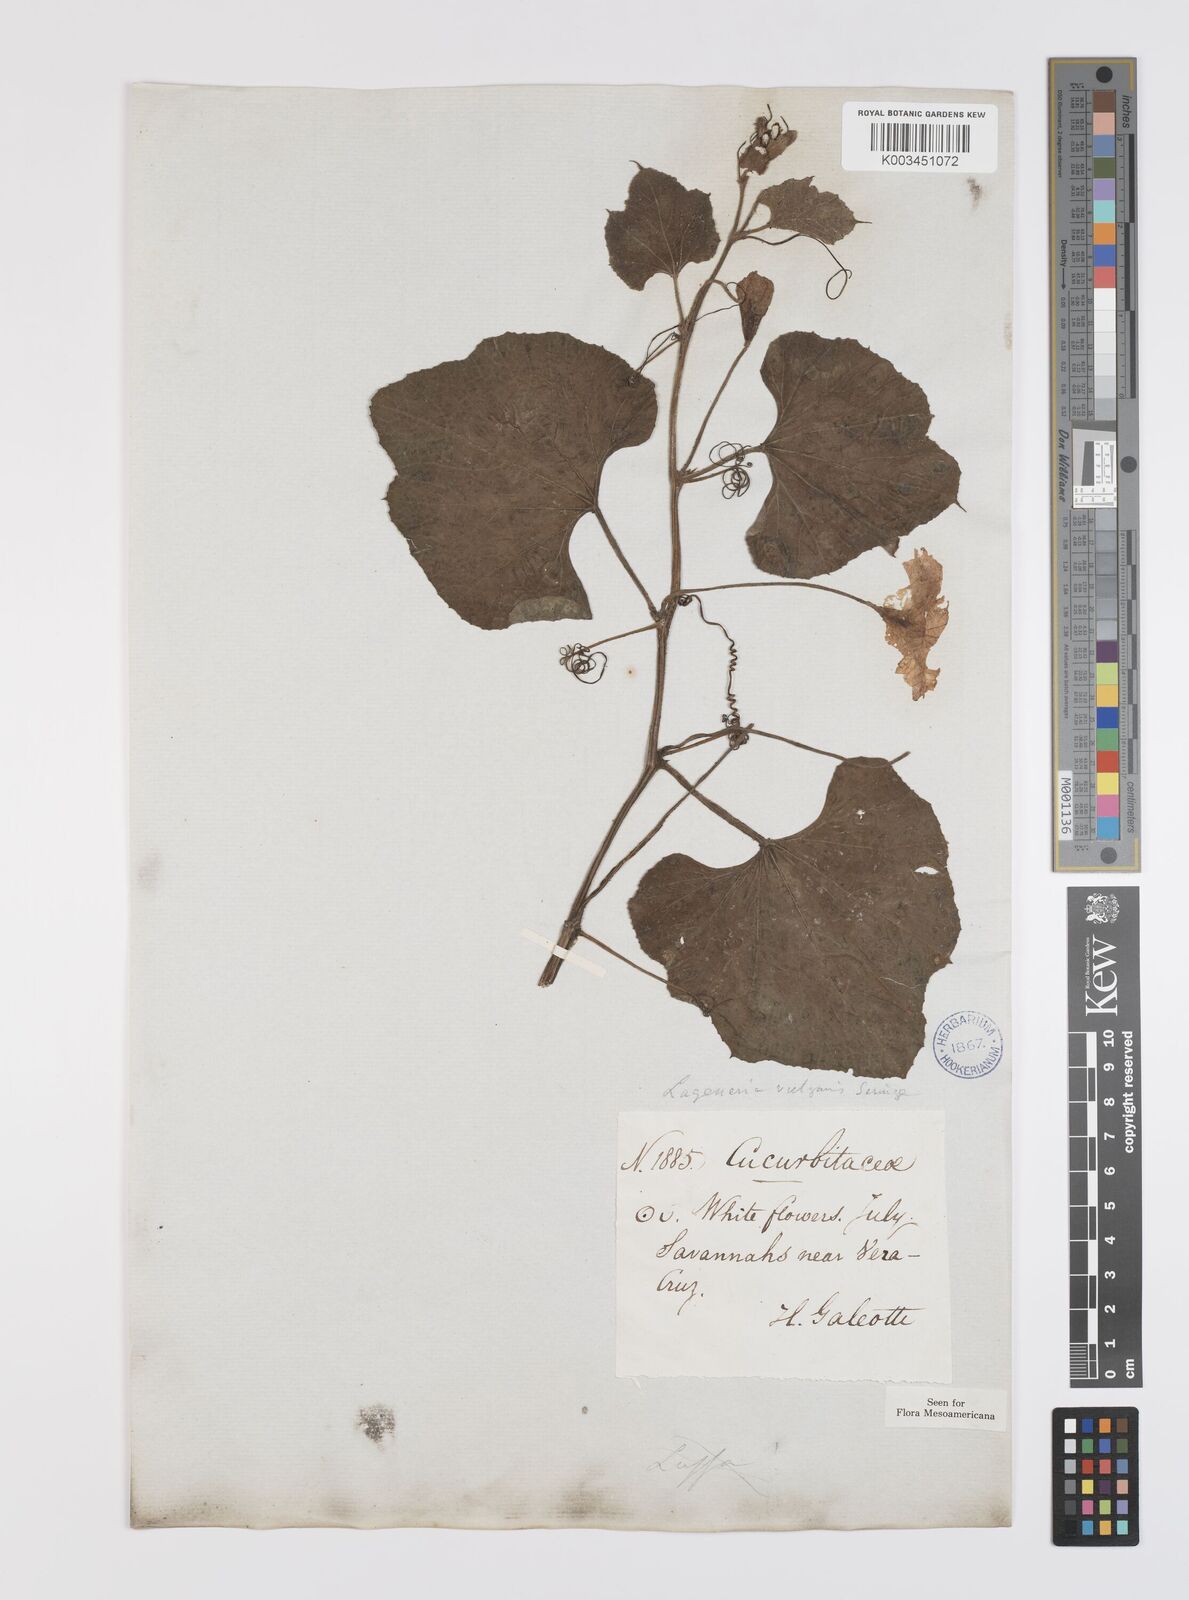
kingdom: Plantae
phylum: Tracheophyta
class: Magnoliopsida
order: Cucurbitales
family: Cucurbitaceae
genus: Lagenaria
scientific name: Lagenaria siceraria
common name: Bottle gourd
